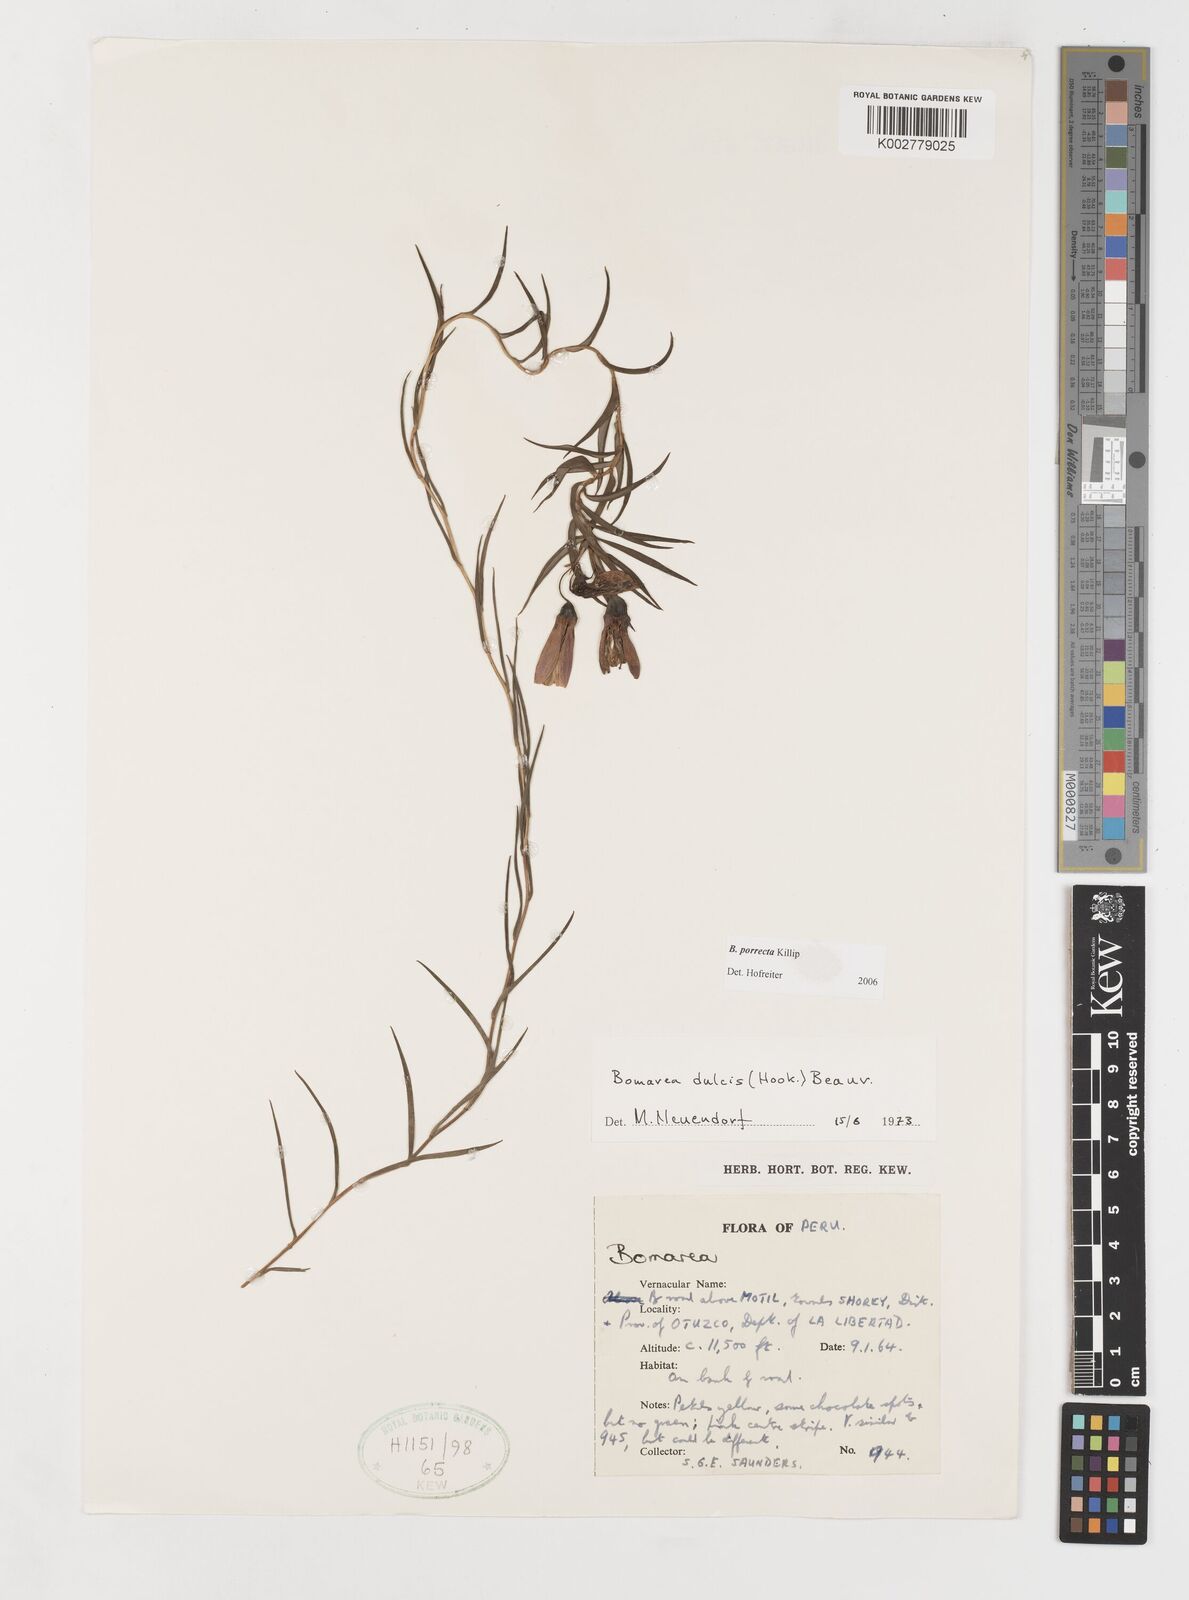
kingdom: Plantae
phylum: Tracheophyta
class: Liliopsida
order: Liliales
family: Alstroemeriaceae
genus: Bomarea
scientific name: Bomarea porrecta
